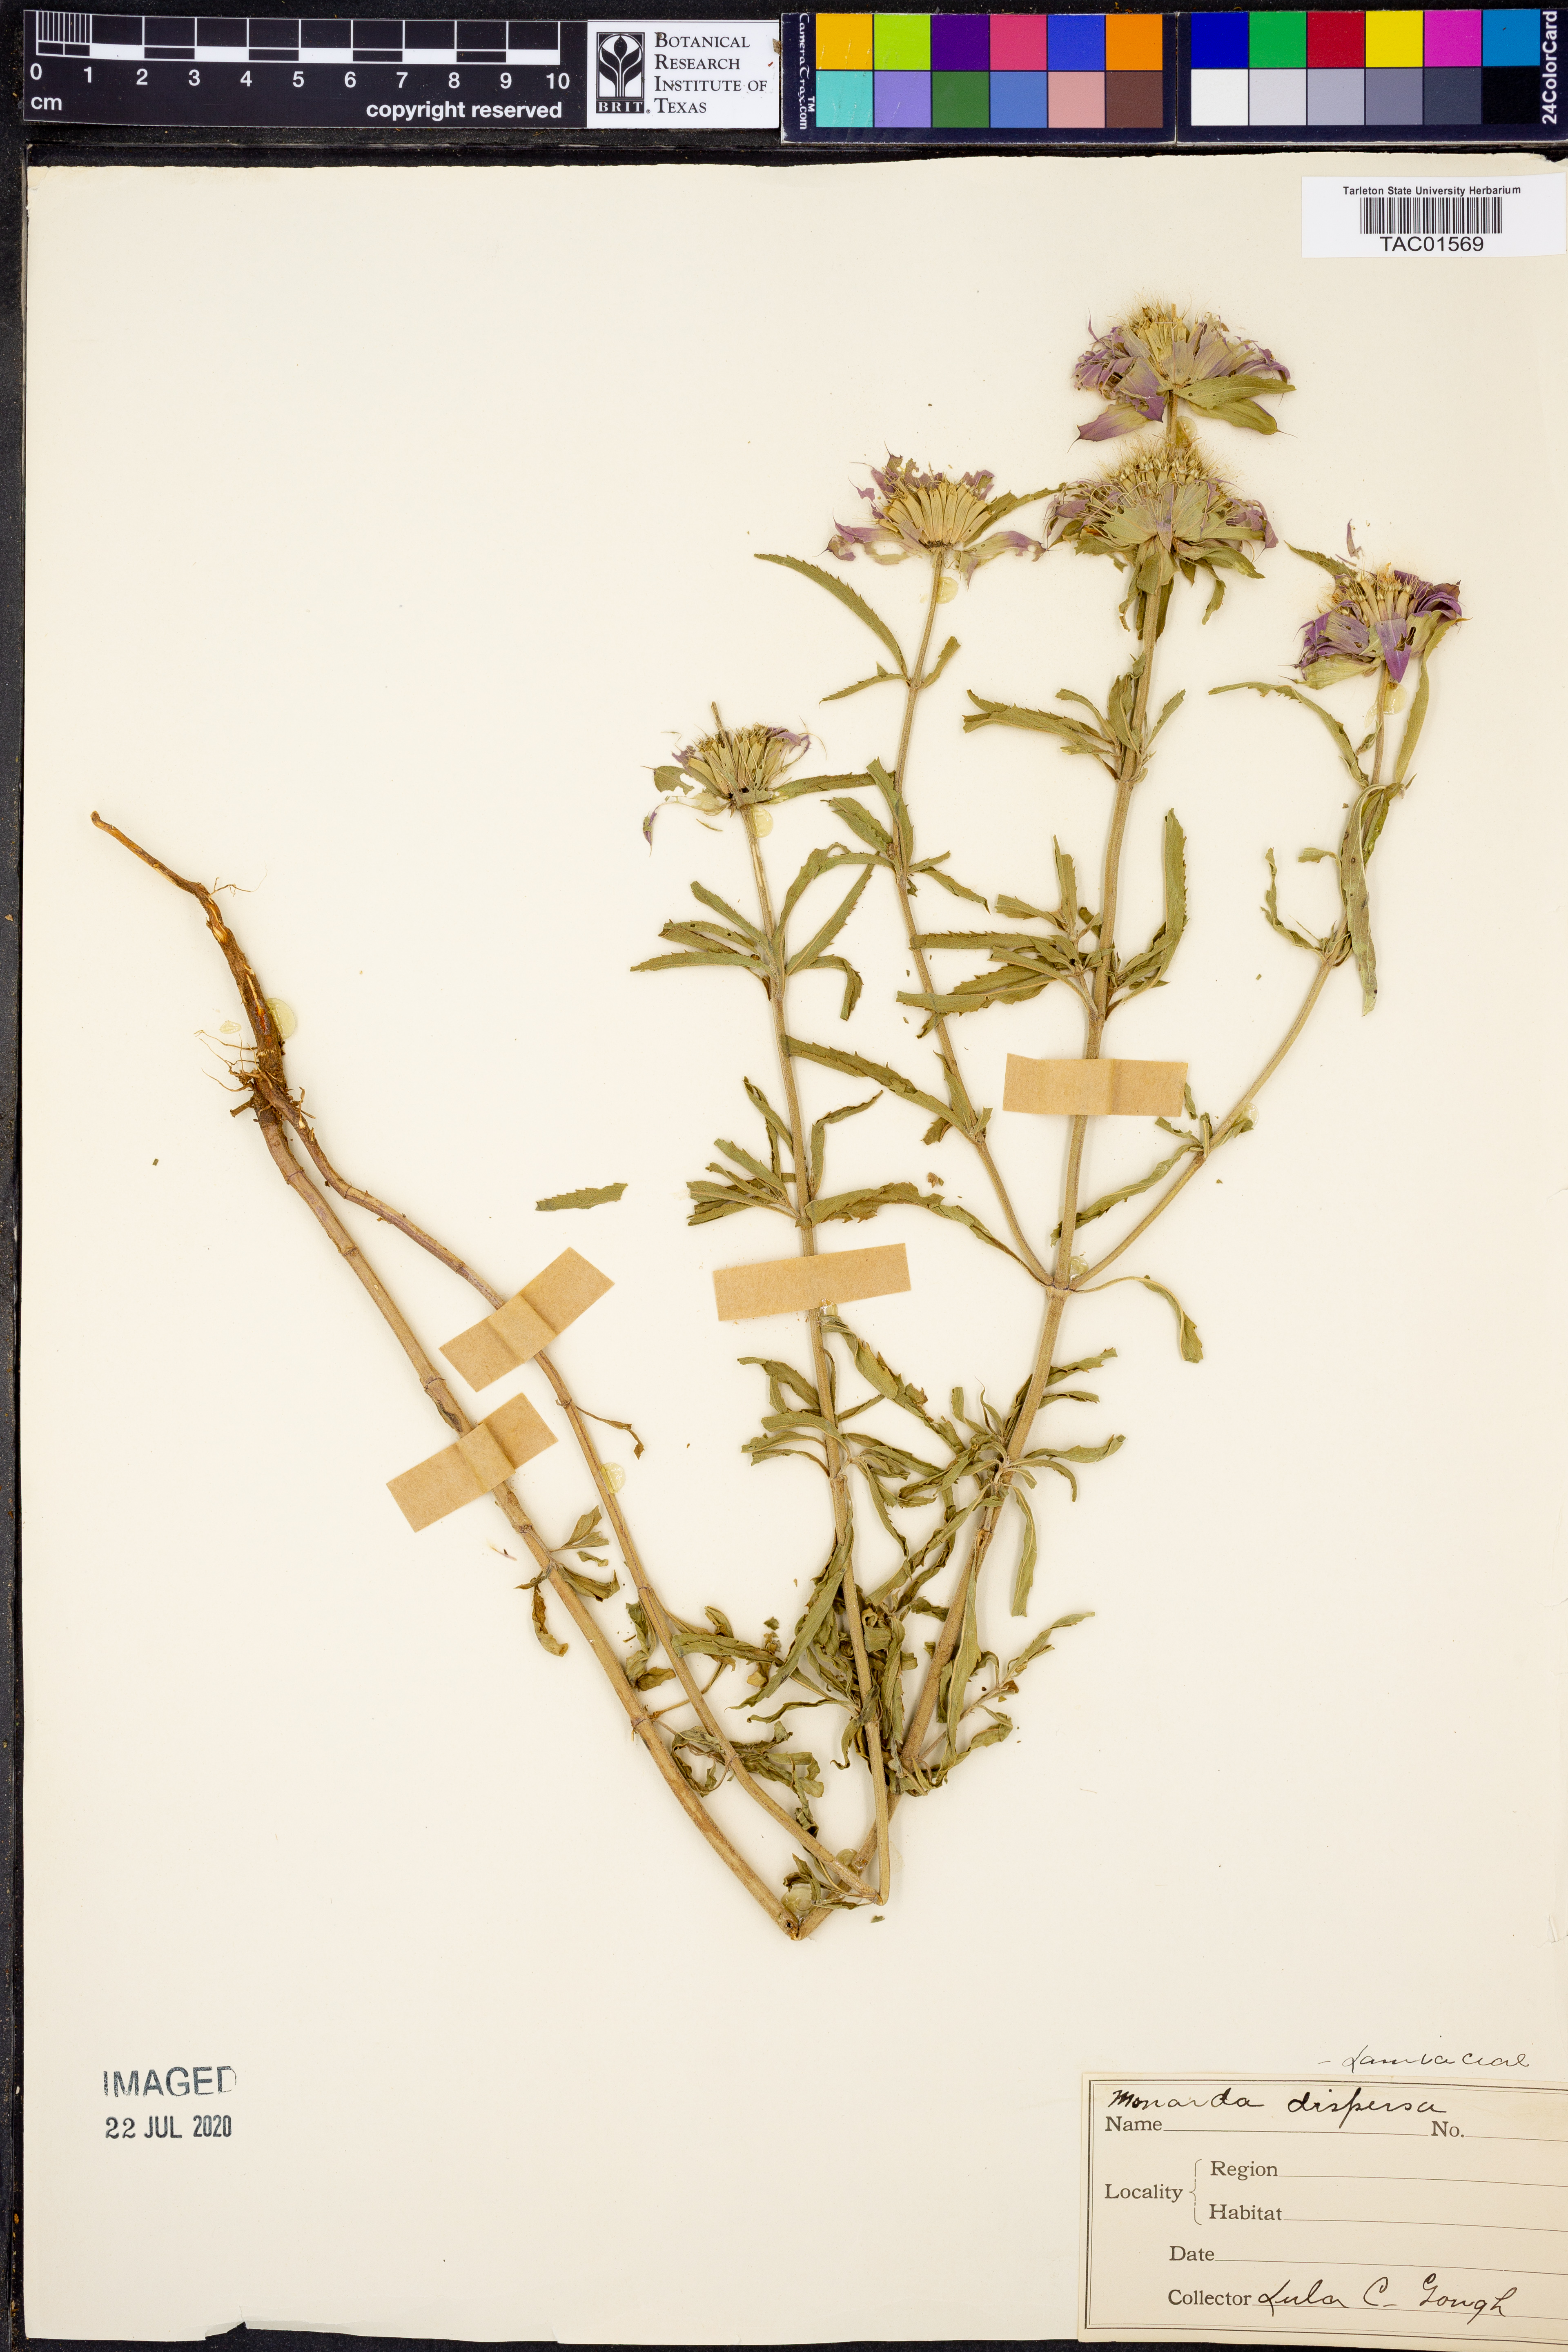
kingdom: Plantae
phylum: Tracheophyta
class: Magnoliopsida
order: Lamiales
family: Lamiaceae
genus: Monarda
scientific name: Monarda citriodora
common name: Lemon beebalm
